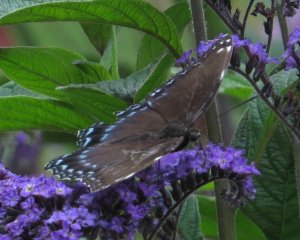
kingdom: Animalia
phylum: Arthropoda
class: Insecta
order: Lepidoptera
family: Nymphalidae
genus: Limenitis
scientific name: Limenitis astyanax
